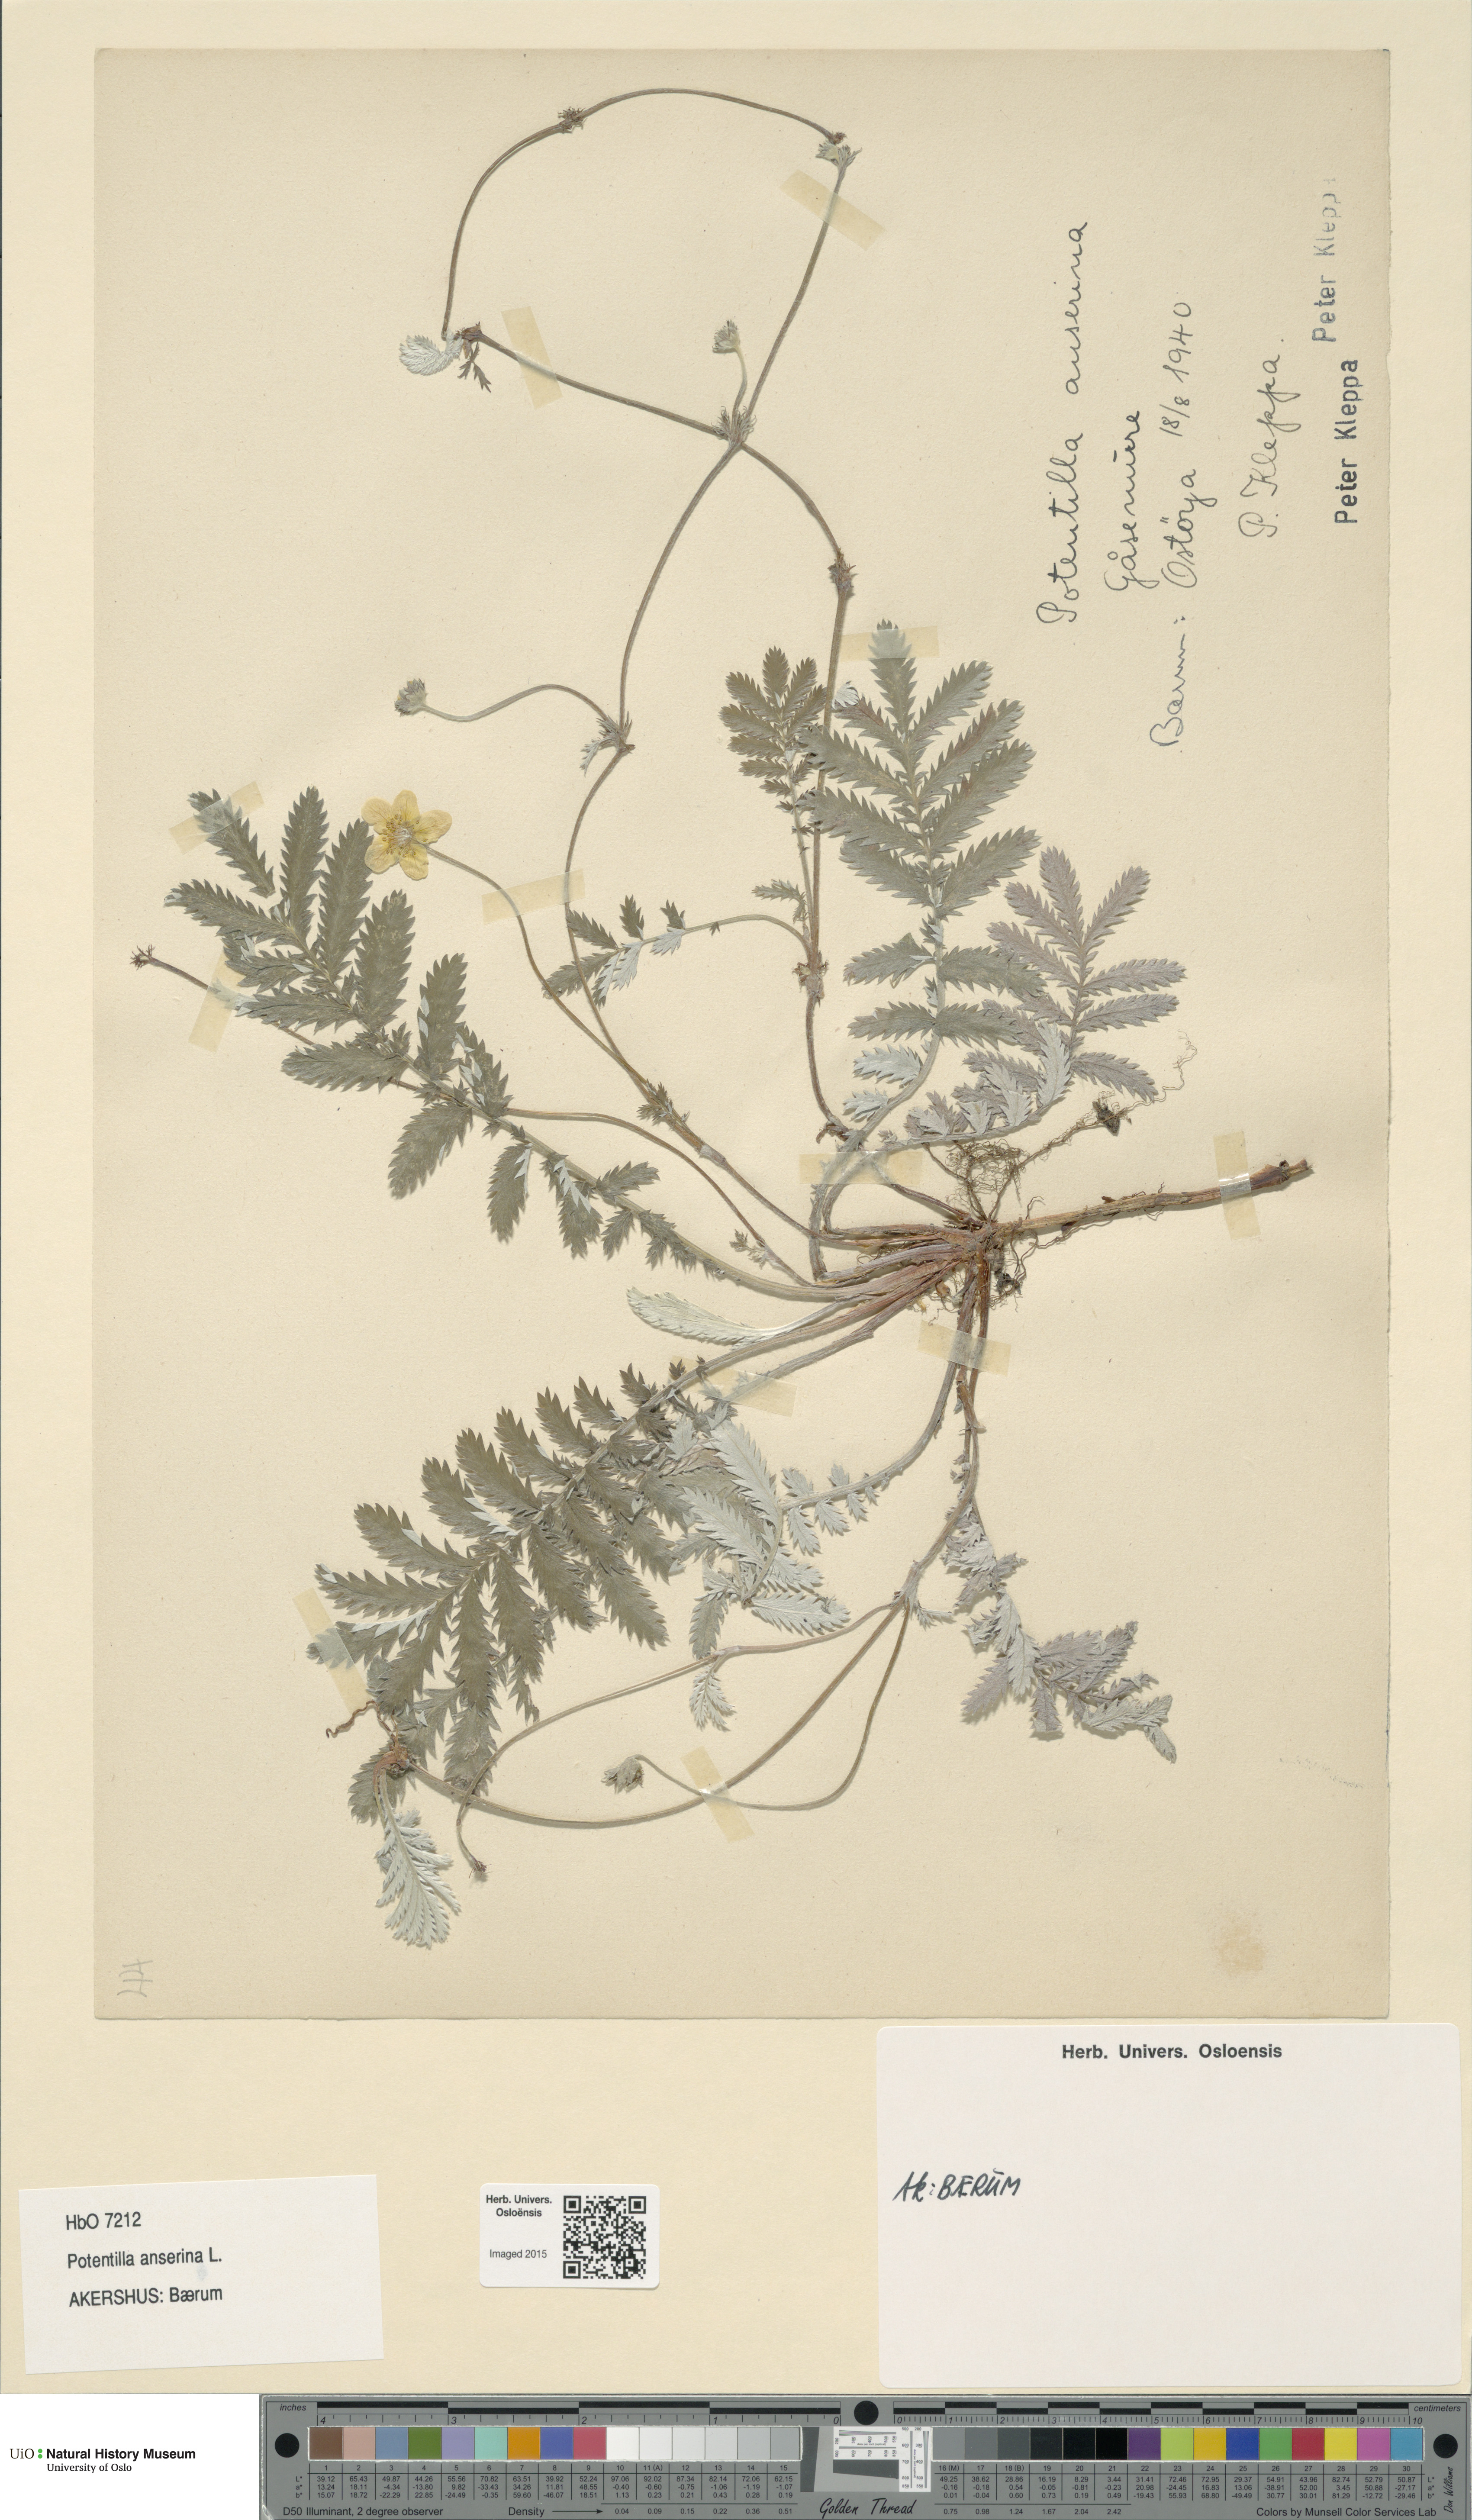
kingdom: Plantae
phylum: Tracheophyta
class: Magnoliopsida
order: Rosales
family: Rosaceae
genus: Argentina
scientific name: Argentina anserina
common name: Common silverweed
